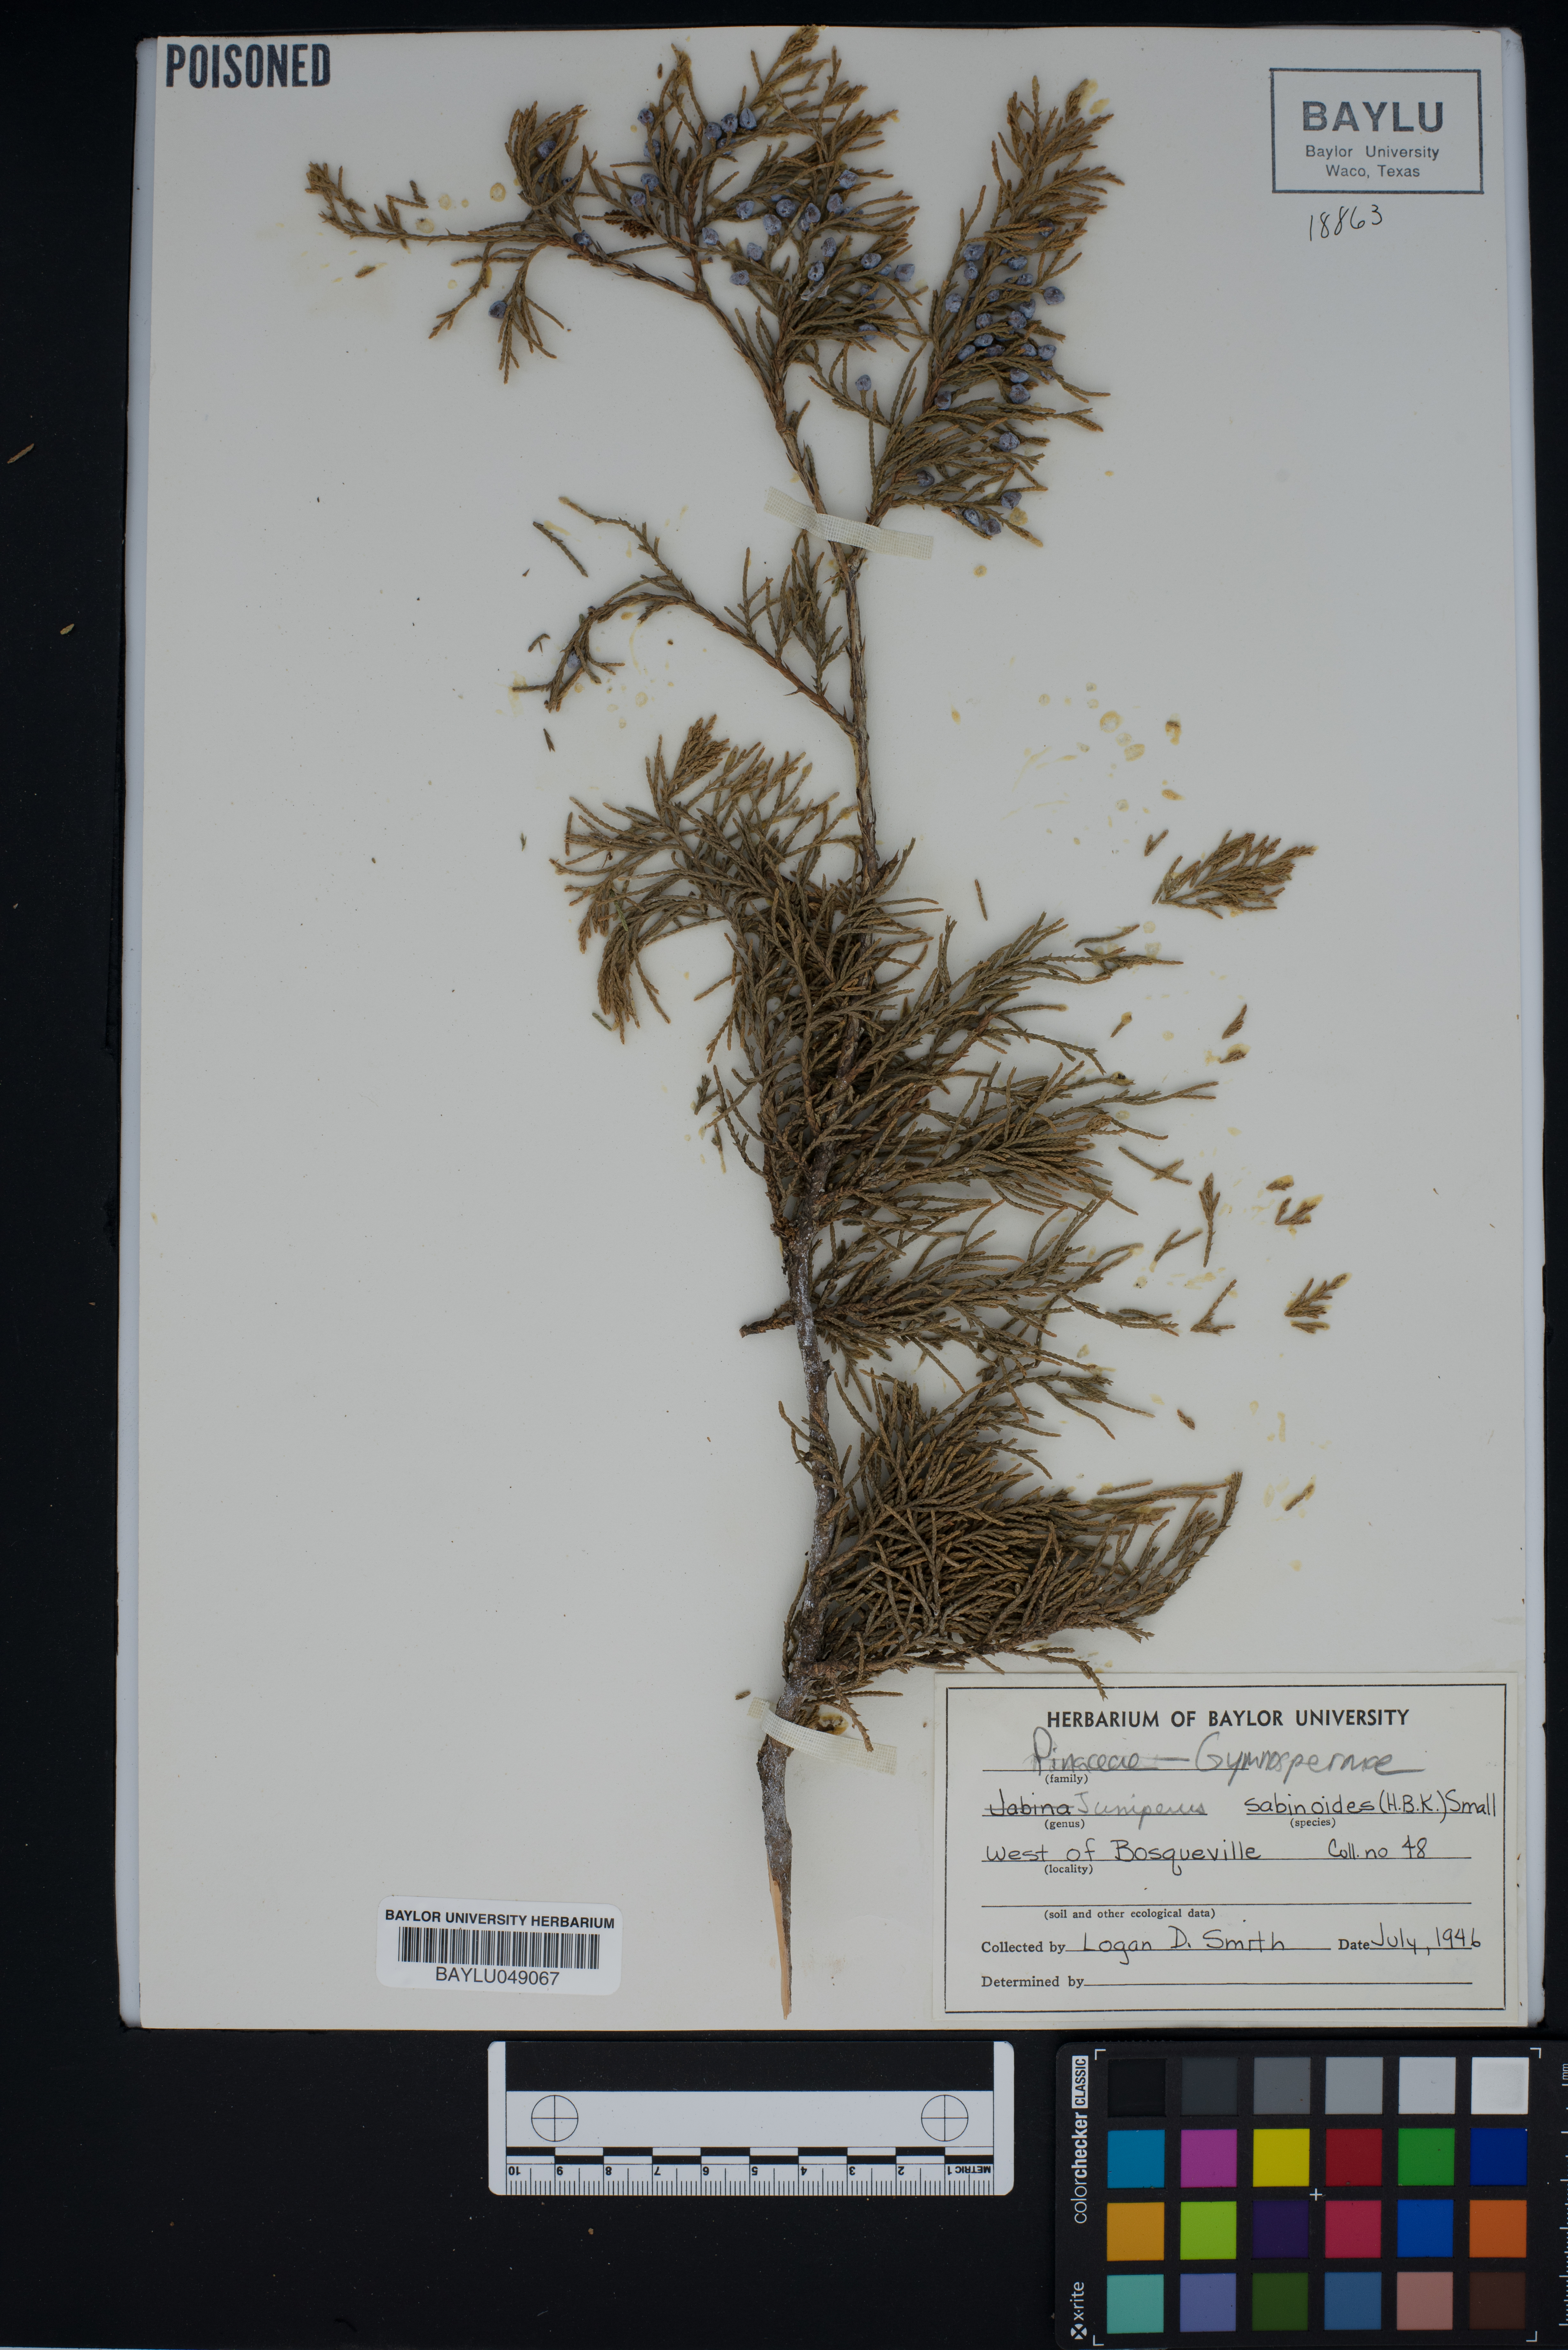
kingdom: Plantae
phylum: Tracheophyta
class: Pinopsida
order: Pinales
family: Cupressaceae
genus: Juniperus
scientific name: Juniperus
